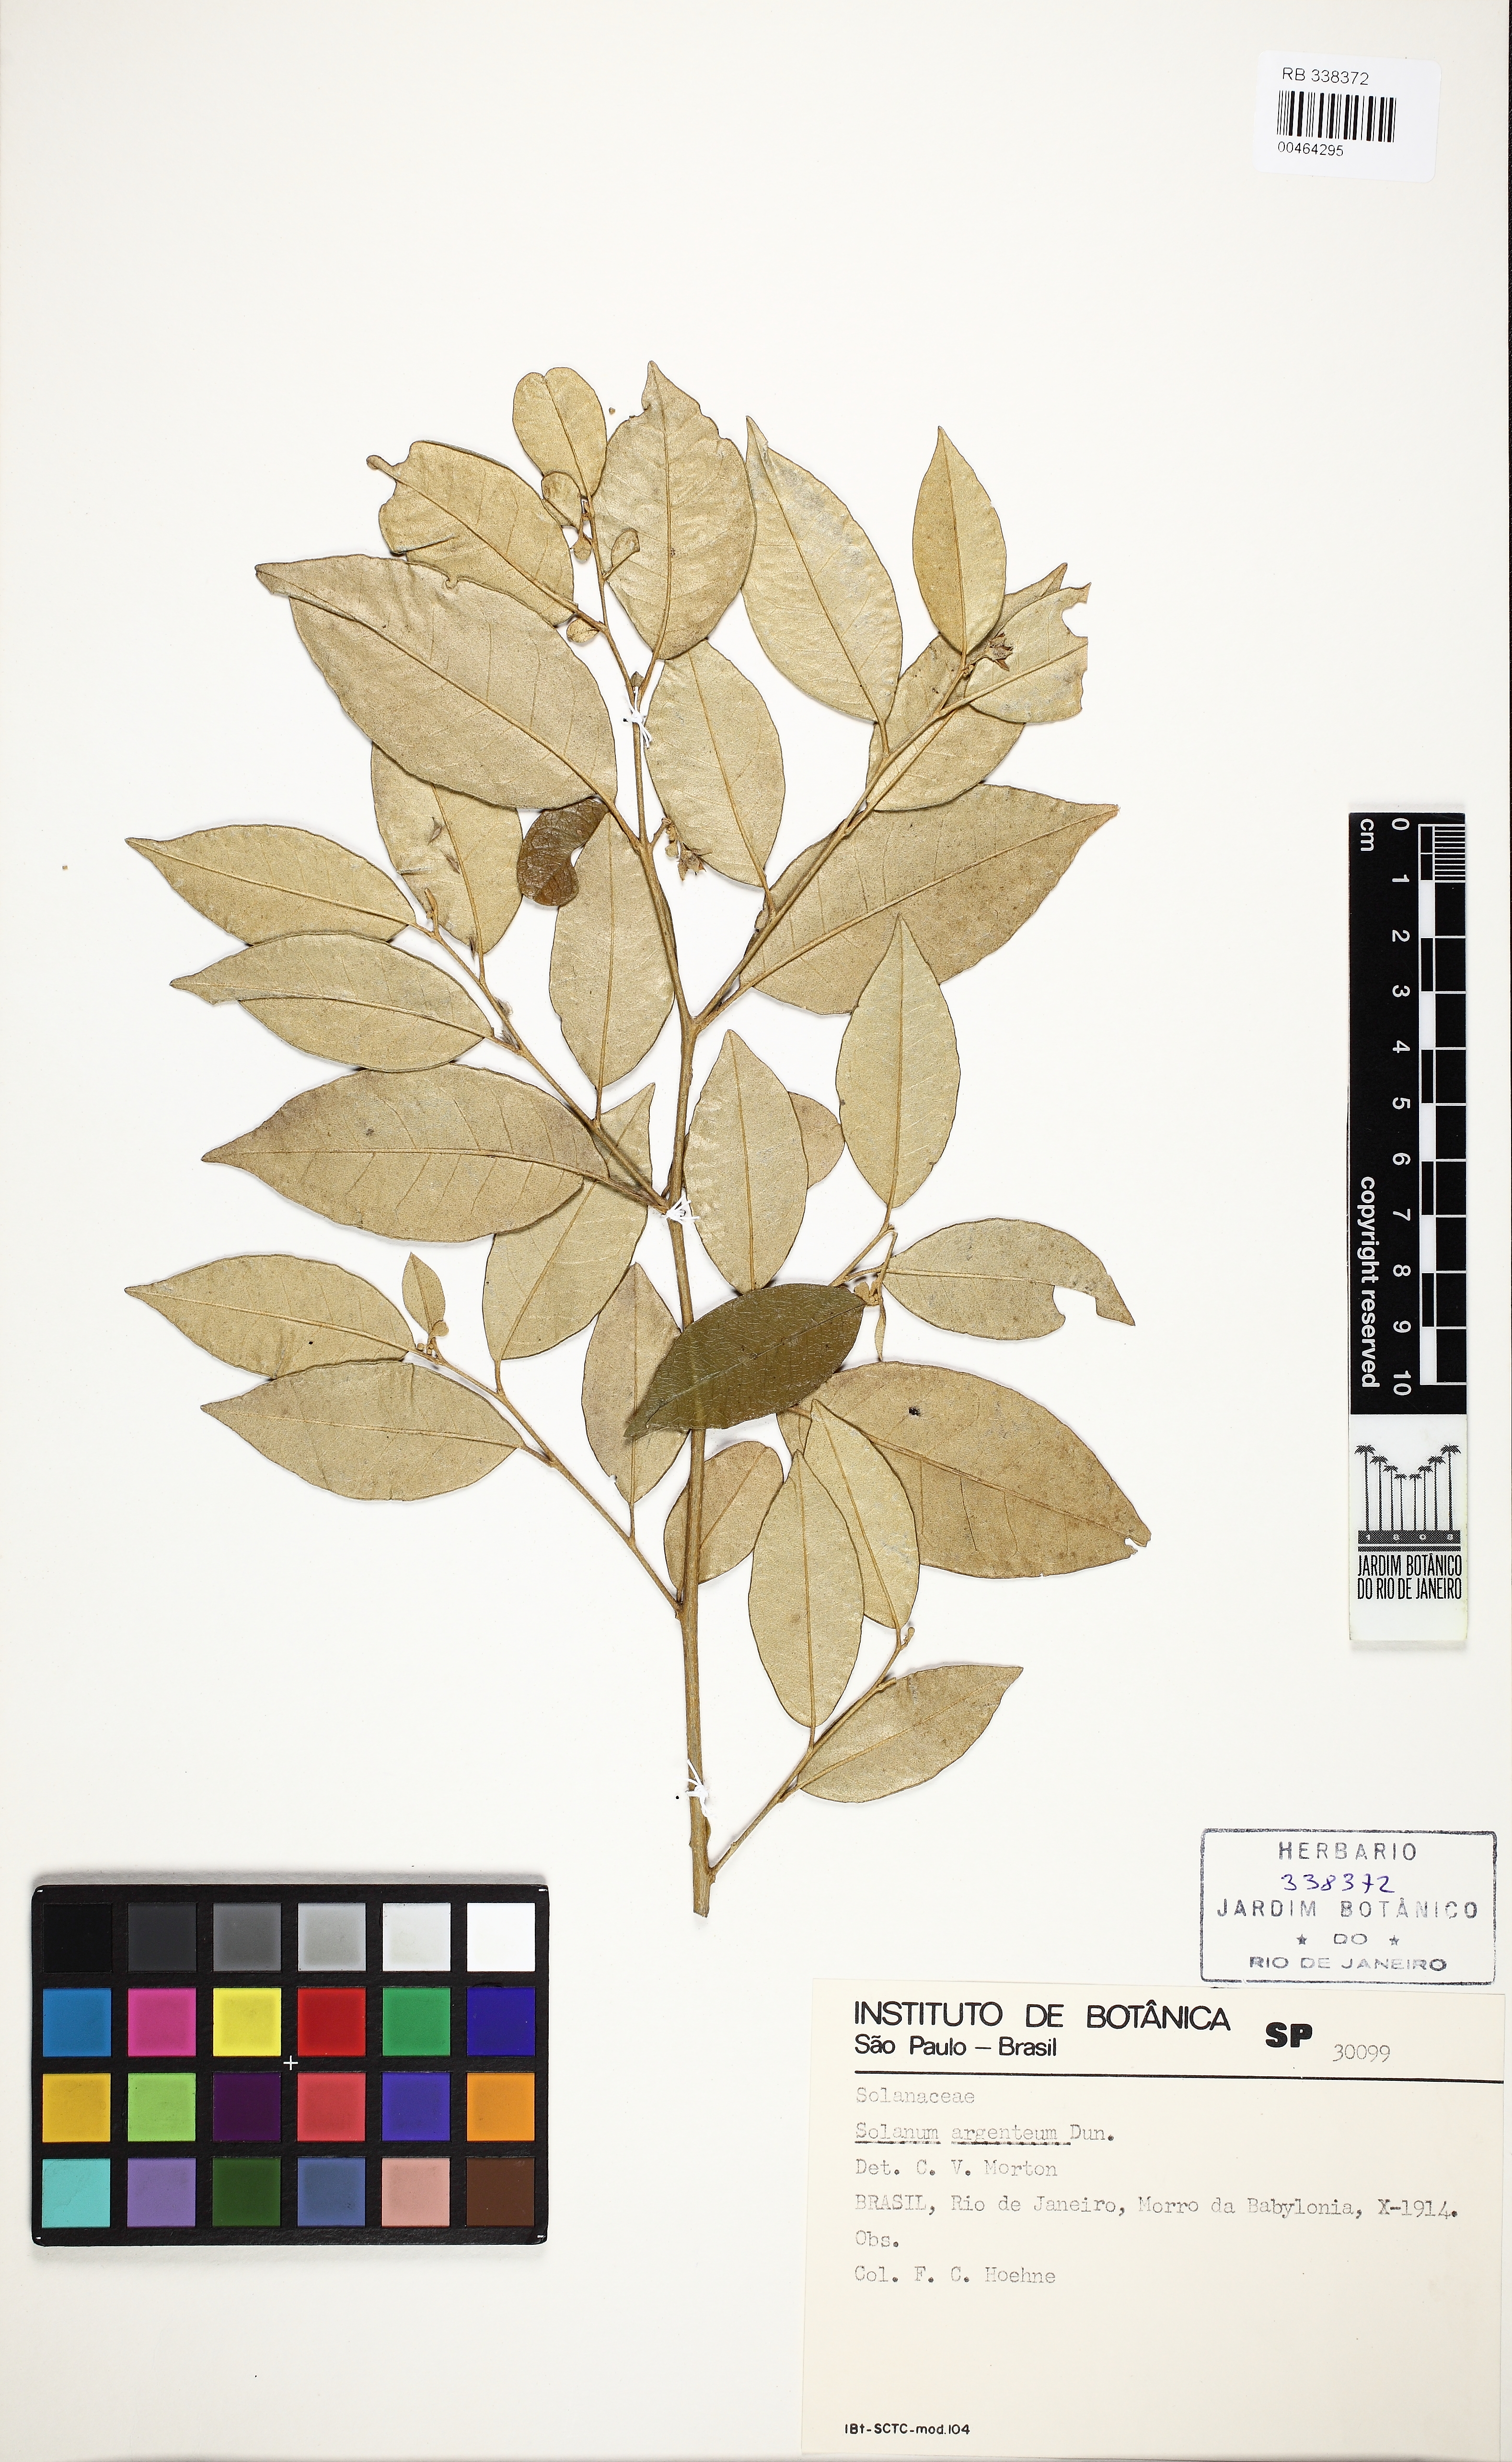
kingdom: Plantae
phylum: Tracheophyta
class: Magnoliopsida
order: Solanales
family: Solanaceae
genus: Solanum
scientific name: Solanum swartzianum
